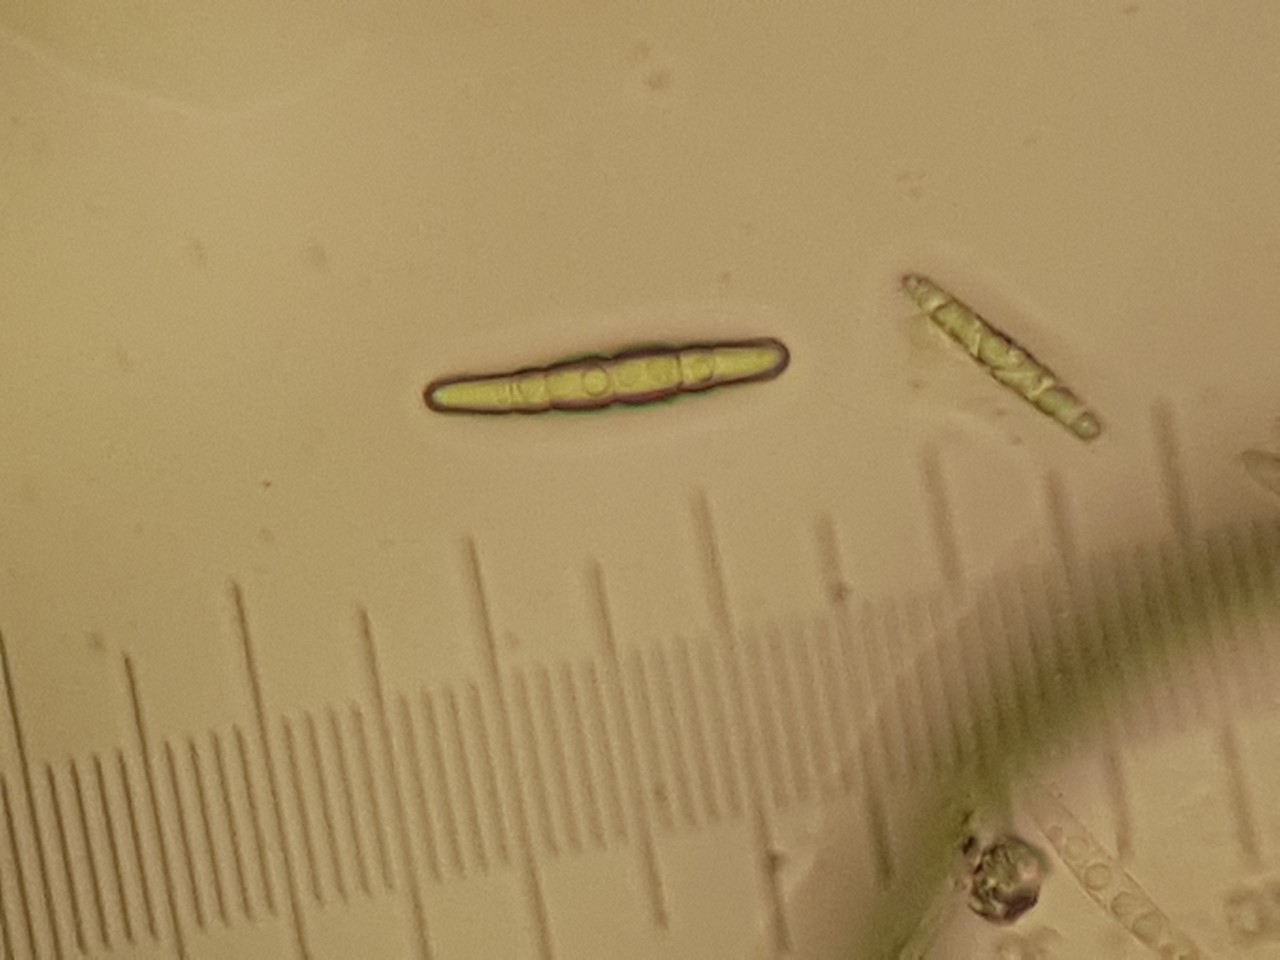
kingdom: Fungi
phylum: Ascomycota
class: Dothideomycetes
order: Pleosporales
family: Phaeosphaeriaceae
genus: Phaeosphaeria
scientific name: Phaeosphaeria sowerbyi
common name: kål-kulkegle
